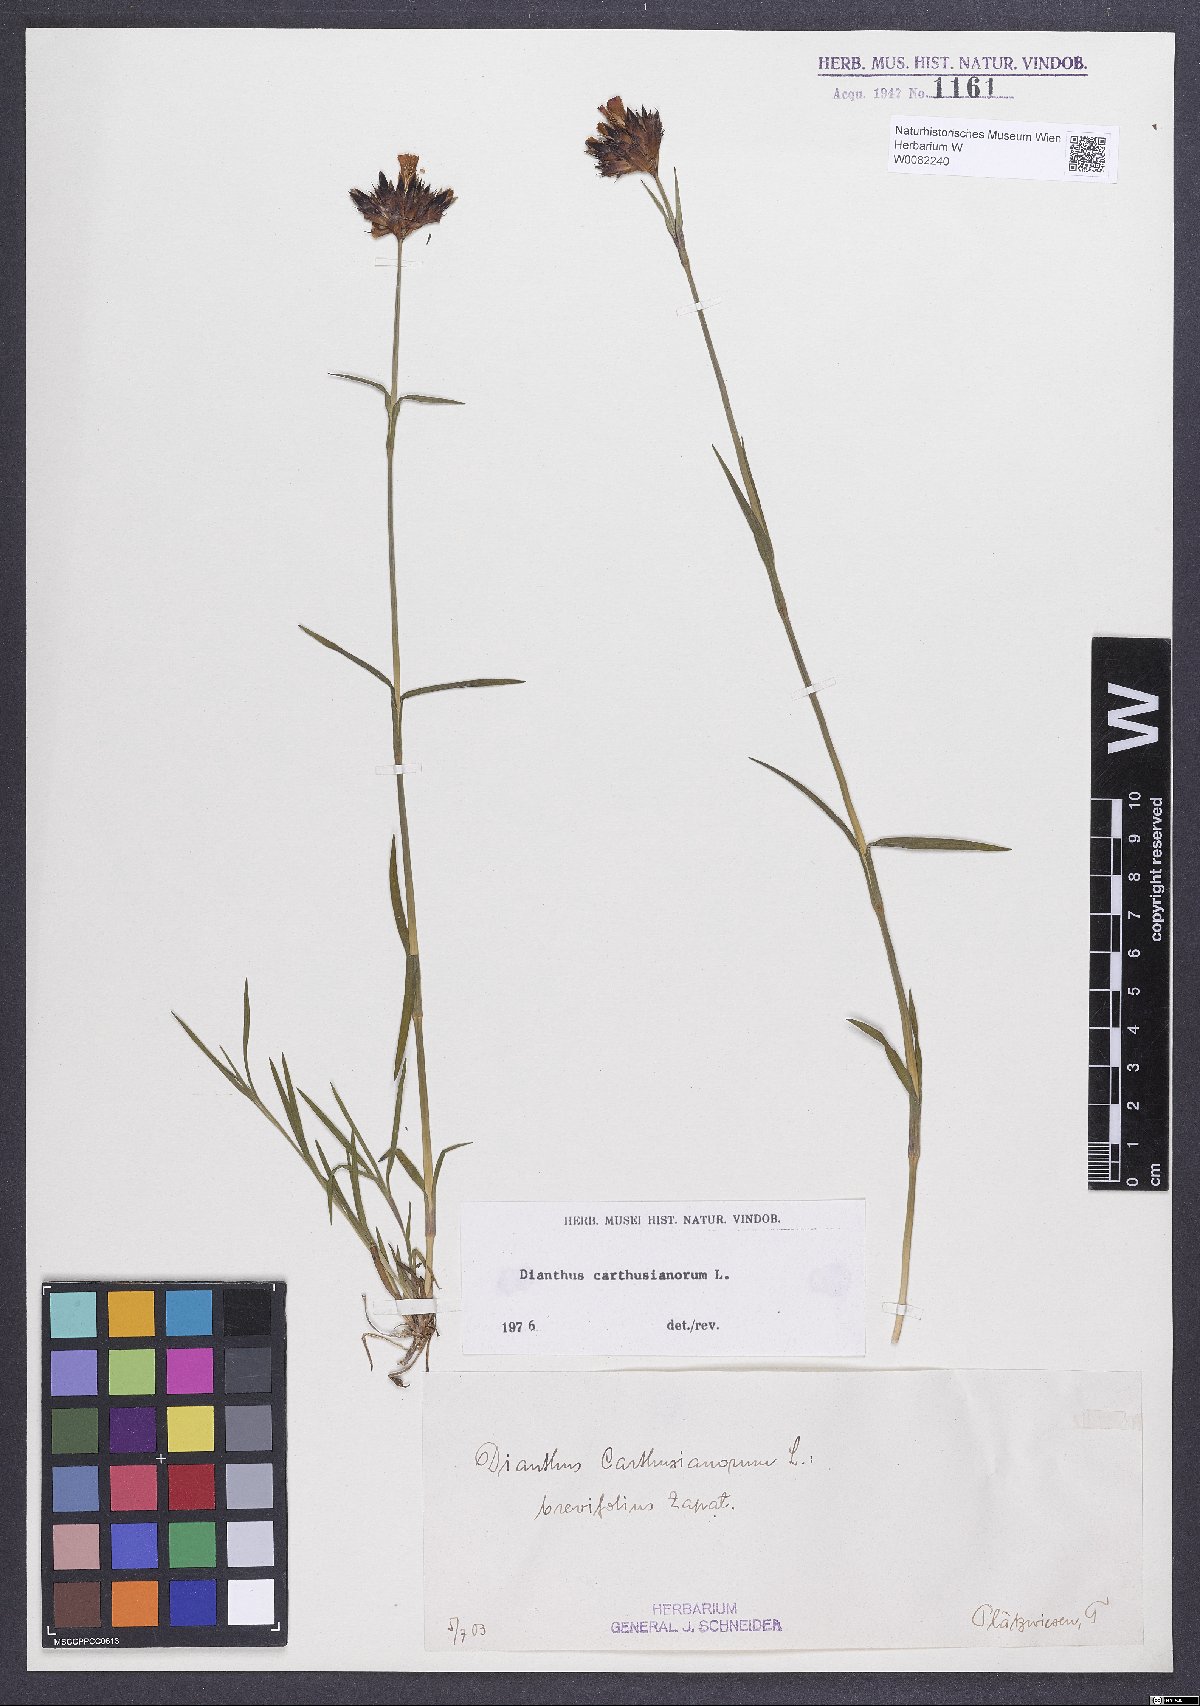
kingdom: Plantae
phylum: Tracheophyta
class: Magnoliopsida
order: Caryophyllales
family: Caryophyllaceae
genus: Dianthus
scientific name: Dianthus carthusianorum
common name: Carthusian pink
